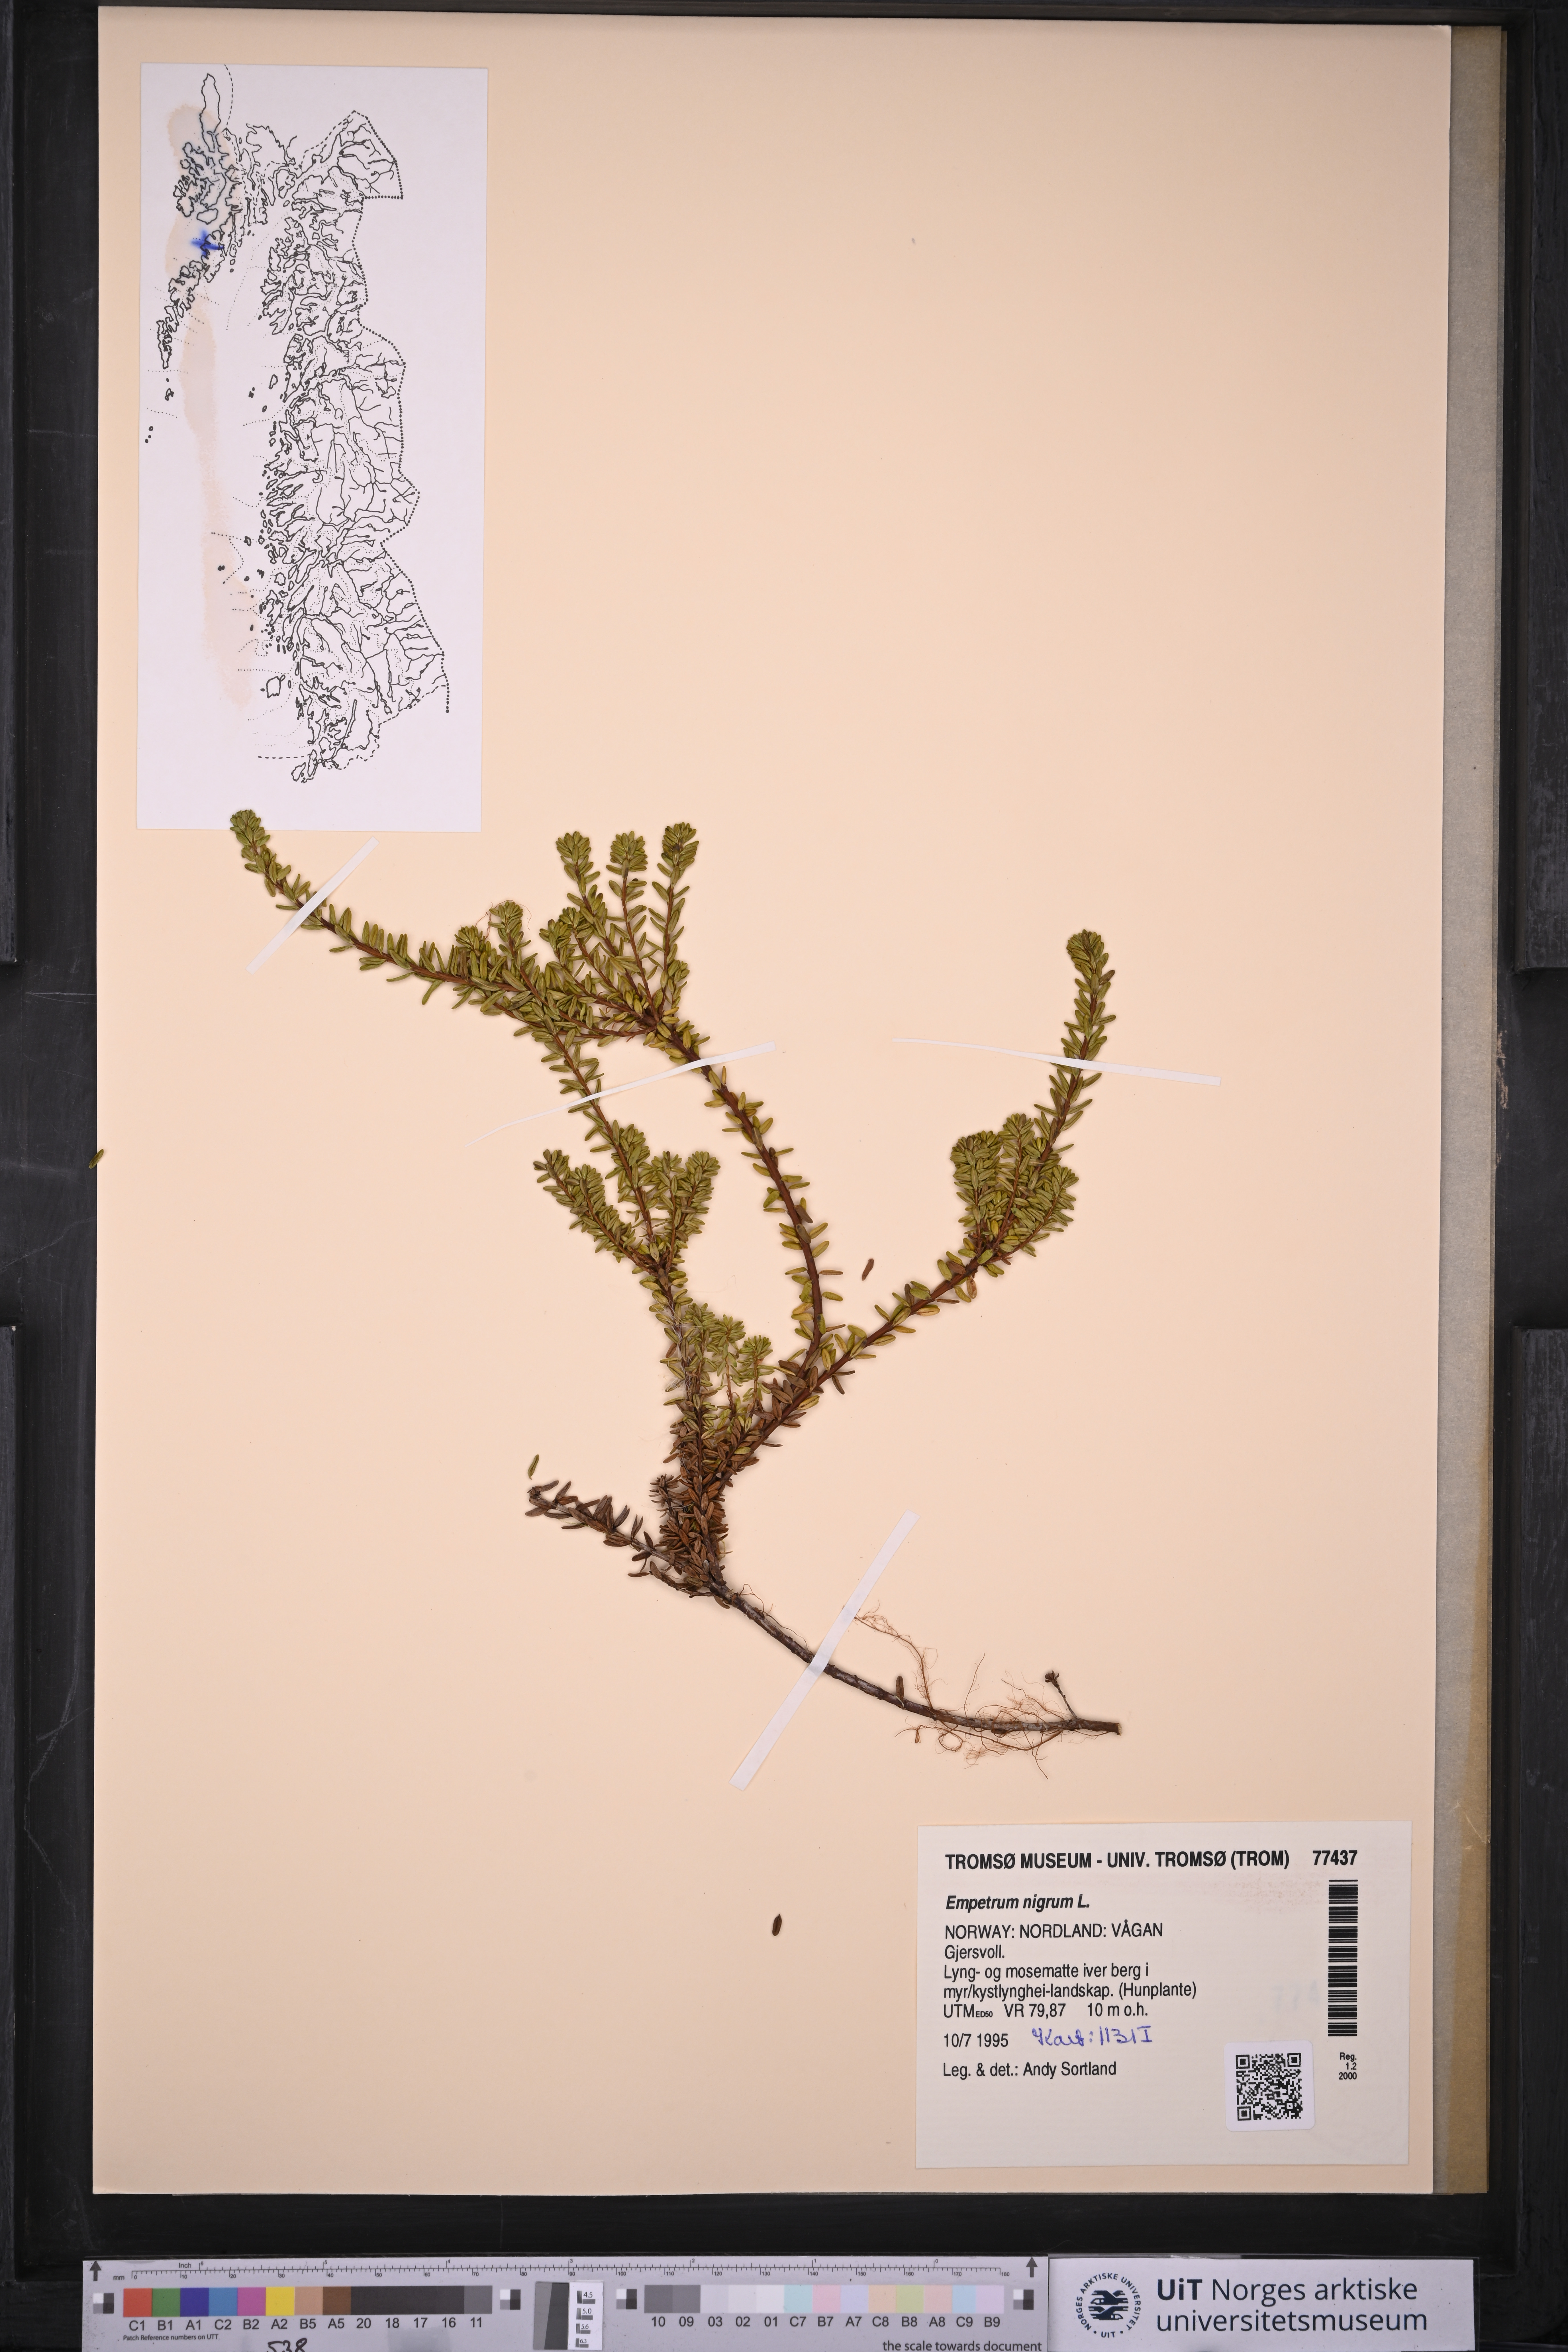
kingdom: Plantae
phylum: Tracheophyta
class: Magnoliopsida
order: Ericales
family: Ericaceae
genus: Empetrum
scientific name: Empetrum nigrum
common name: Black crowberry
